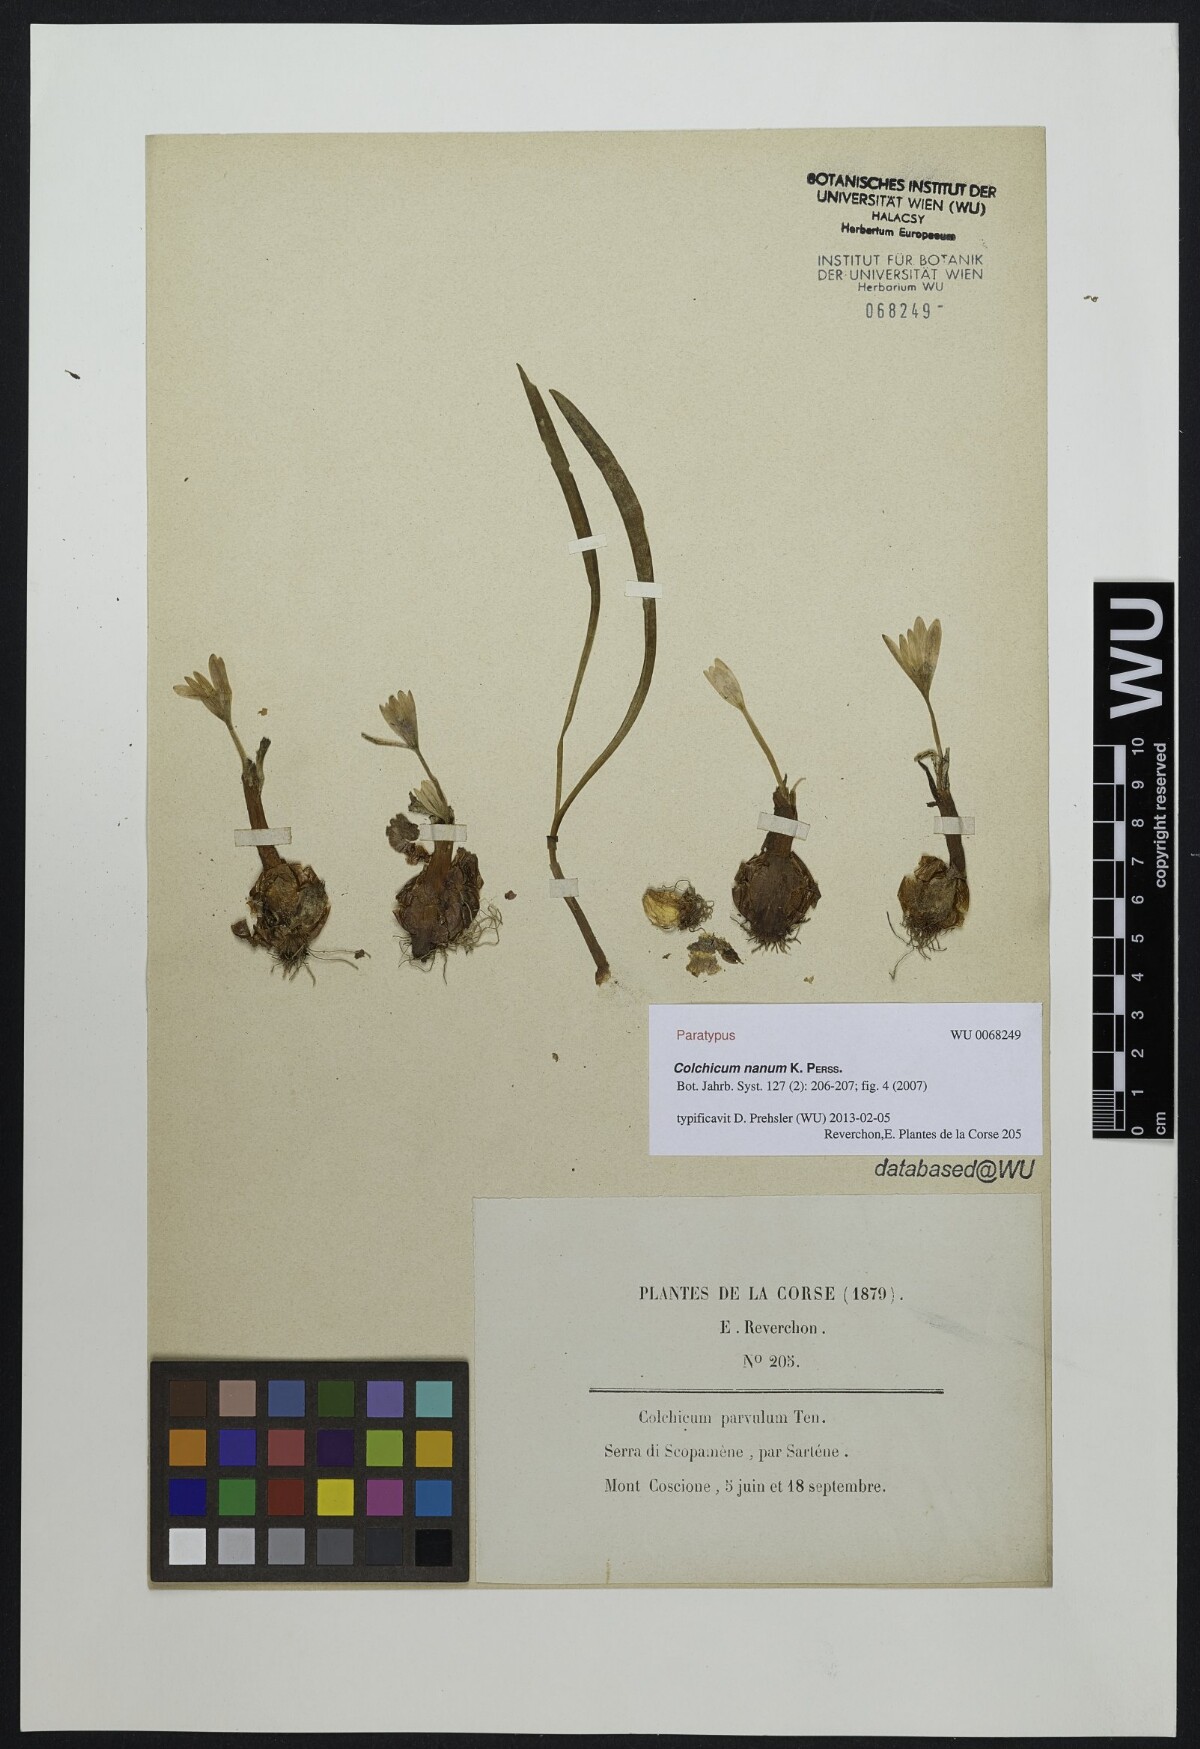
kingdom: Plantae
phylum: Tracheophyta
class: Liliopsida
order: Liliales
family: Colchicaceae
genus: Colchicum
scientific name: Colchicum nanum
